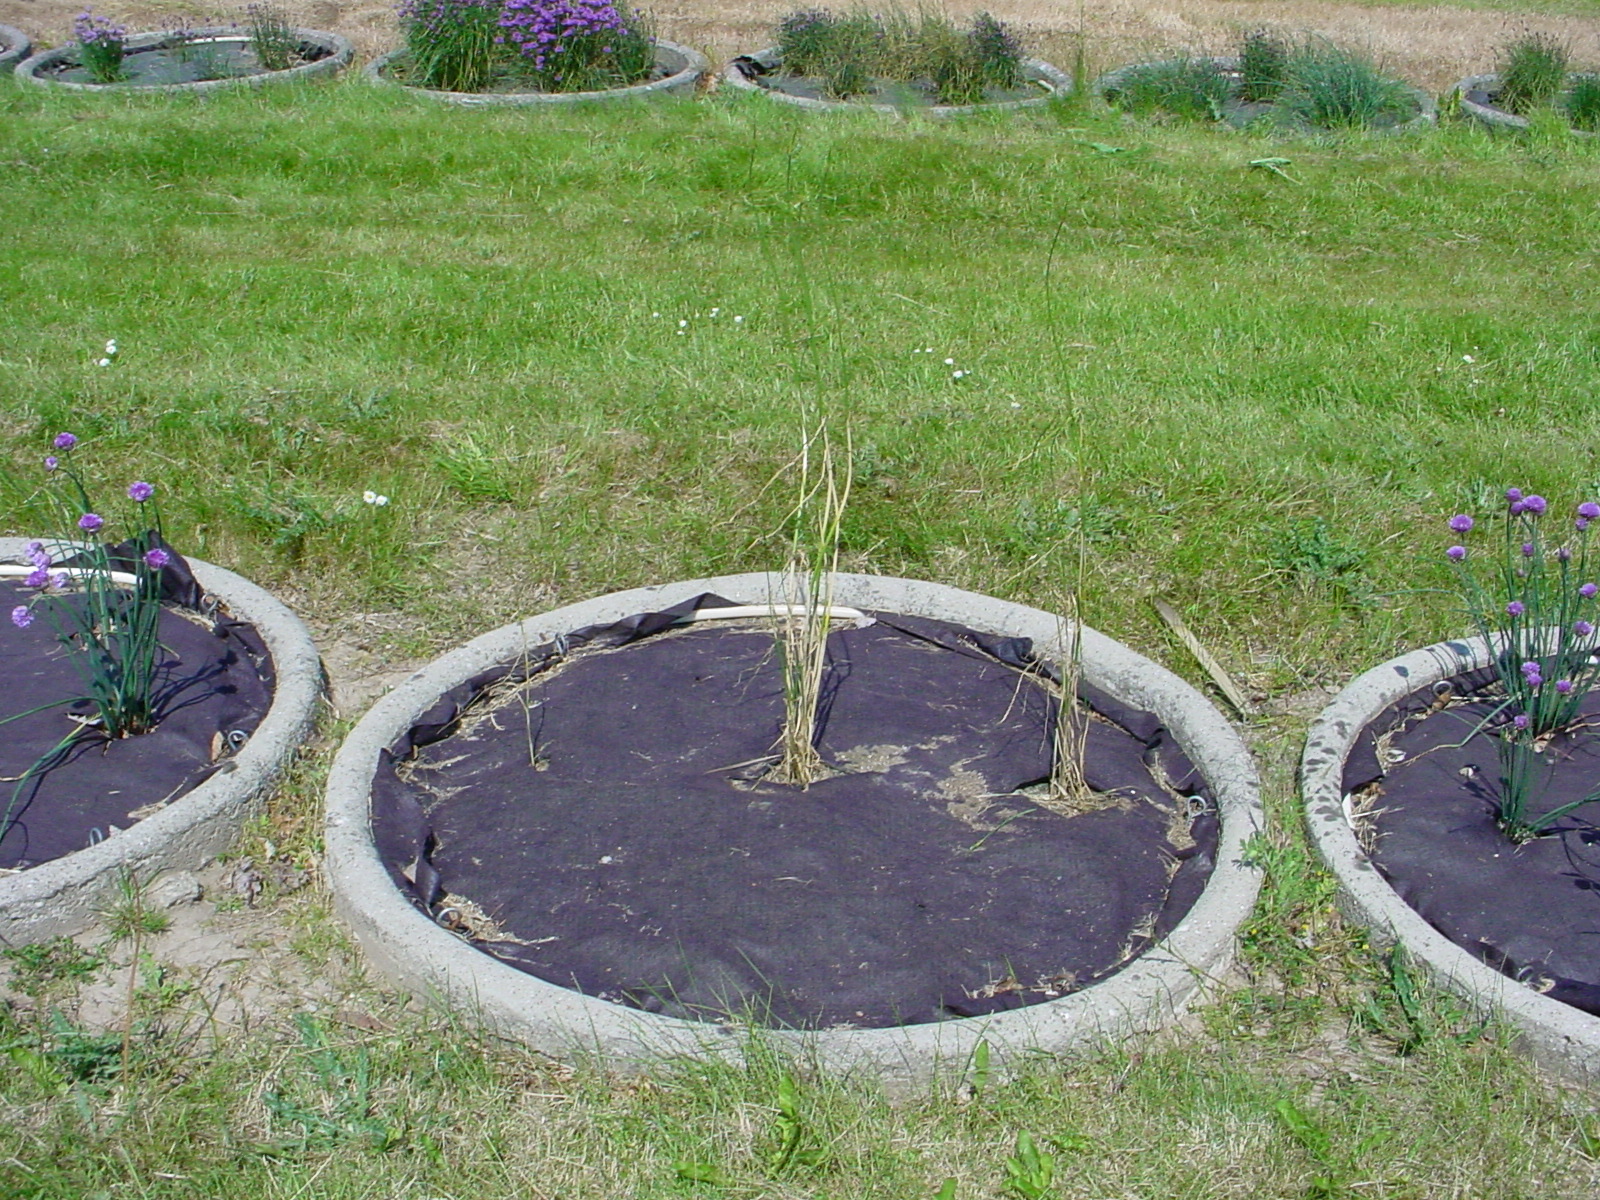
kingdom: Plantae
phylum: Tracheophyta
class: Liliopsida
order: Asparagales
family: Amaryllidaceae
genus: Allium
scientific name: Allium schoenoprasum
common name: Chives
